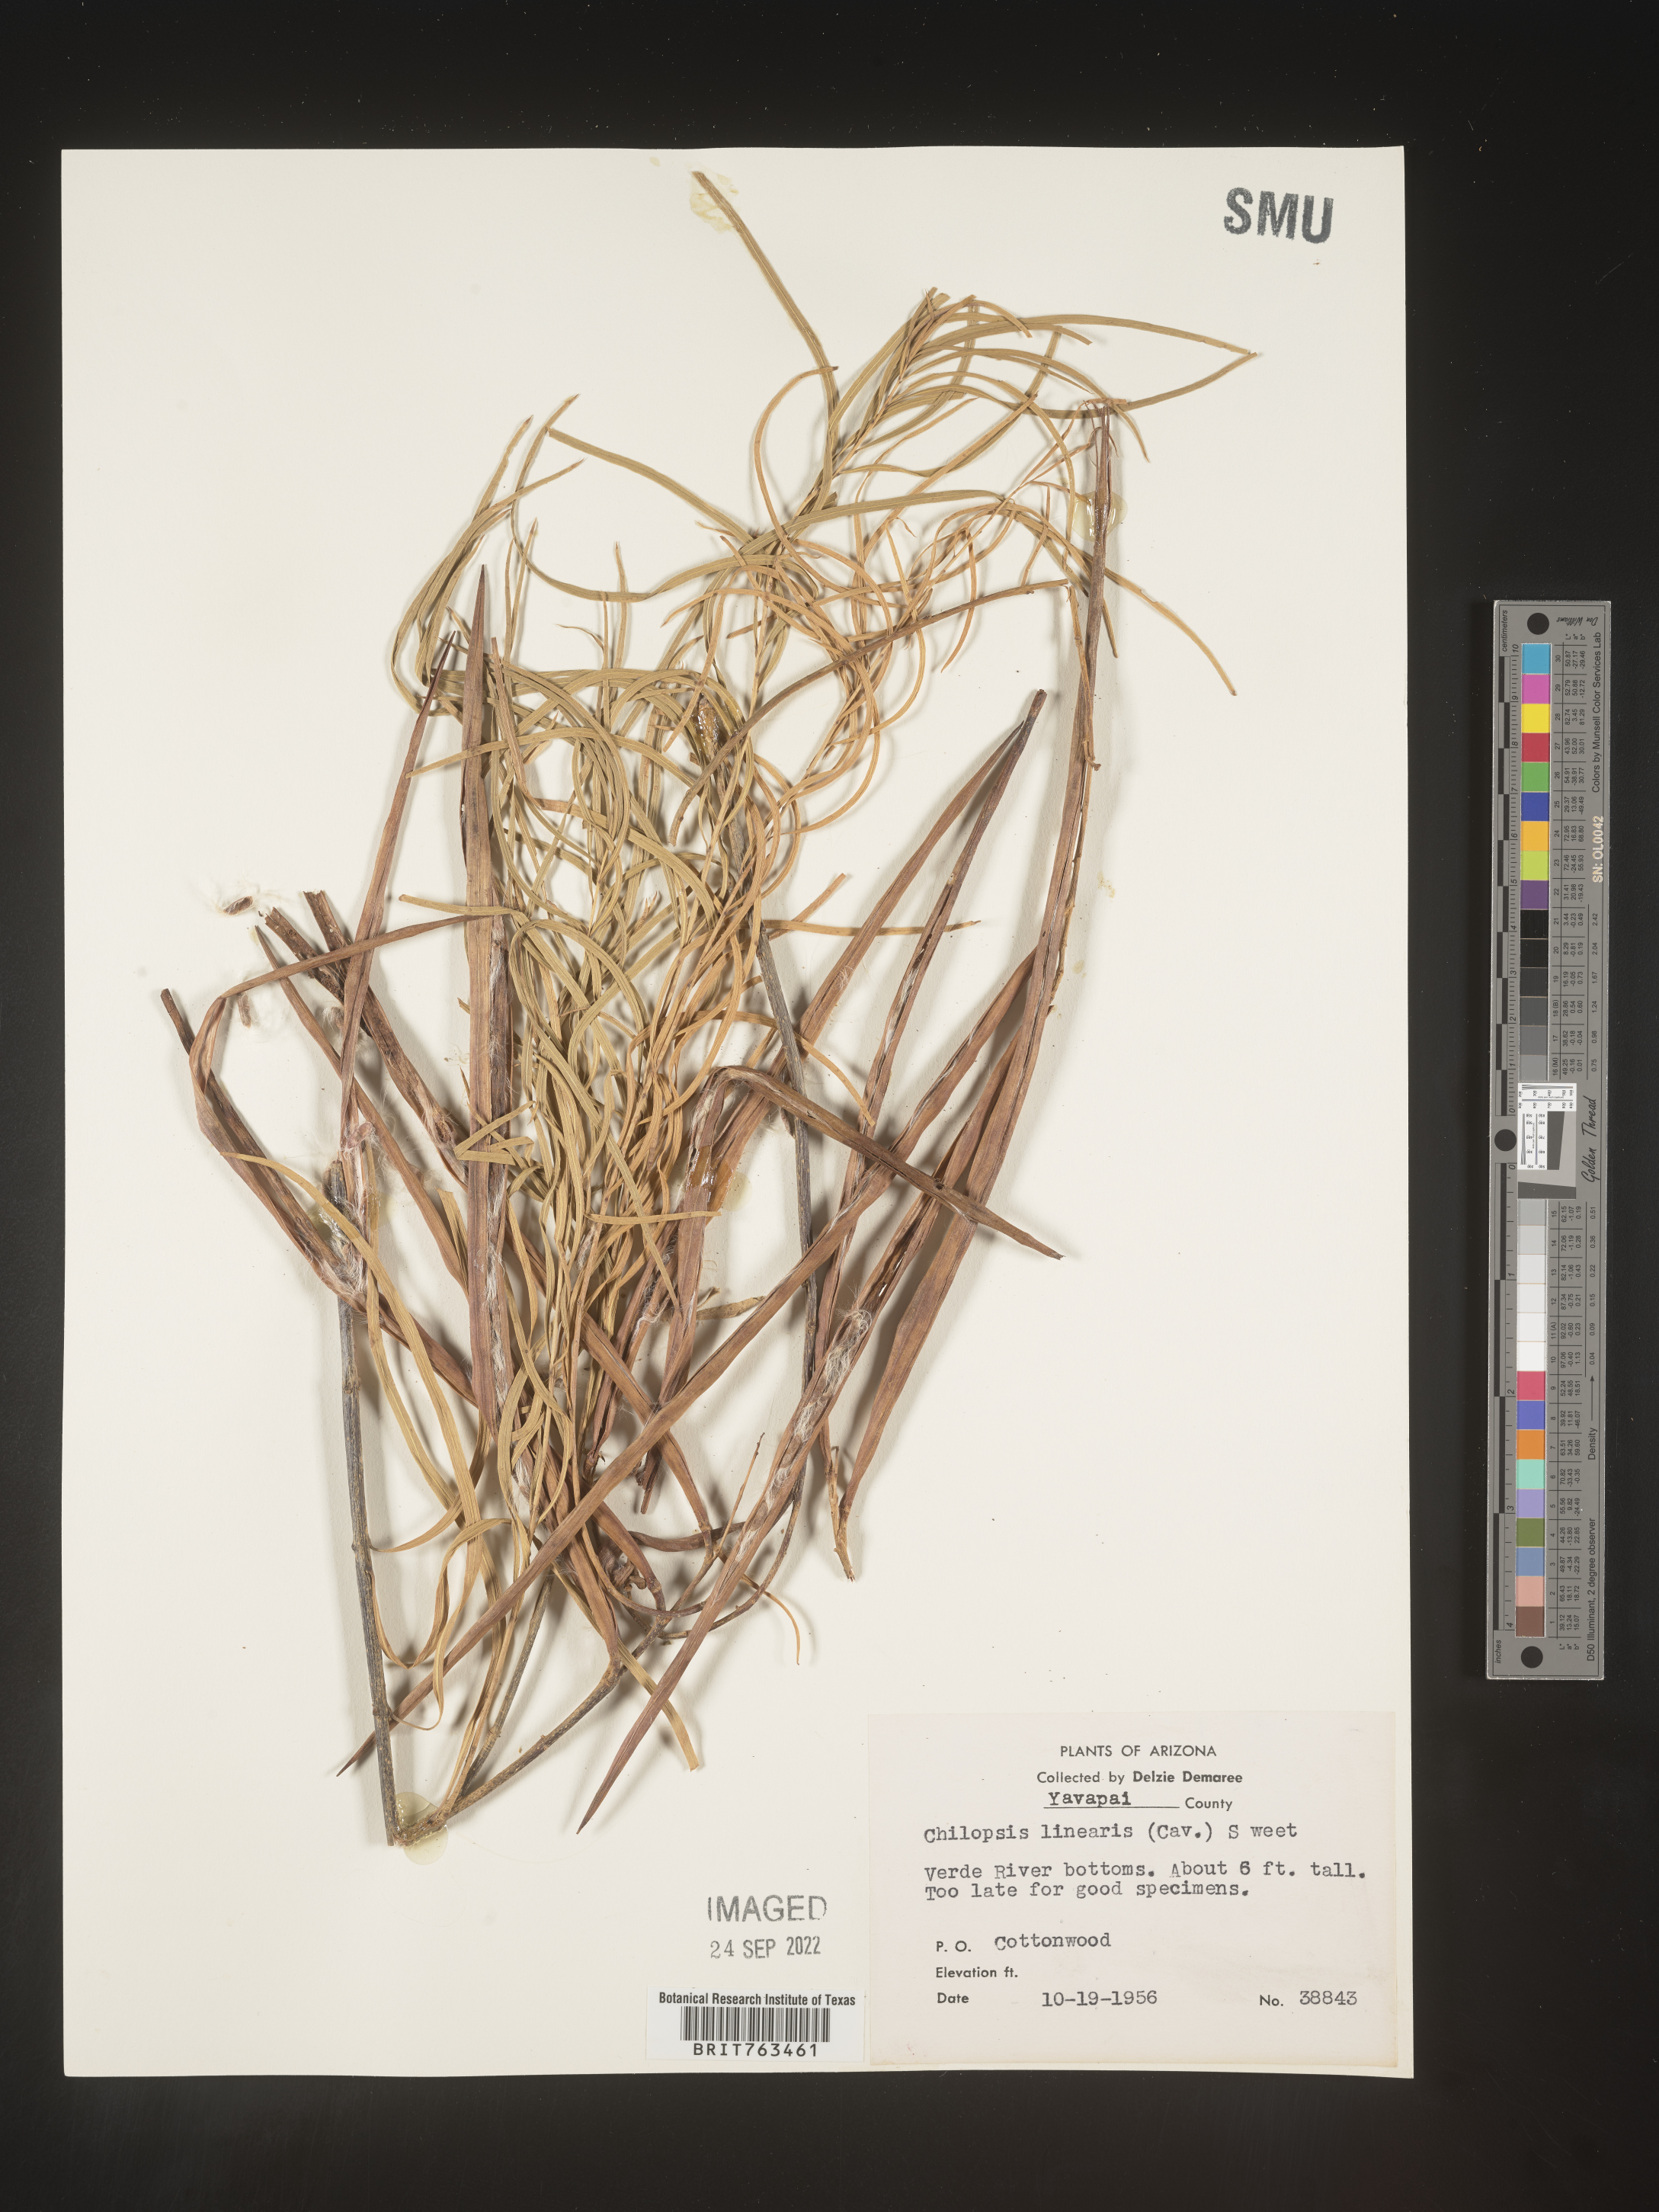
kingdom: Plantae
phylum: Tracheophyta
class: Magnoliopsida
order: Lamiales
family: Bignoniaceae
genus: Chilopsis
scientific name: Chilopsis linearis
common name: Desert-willow
